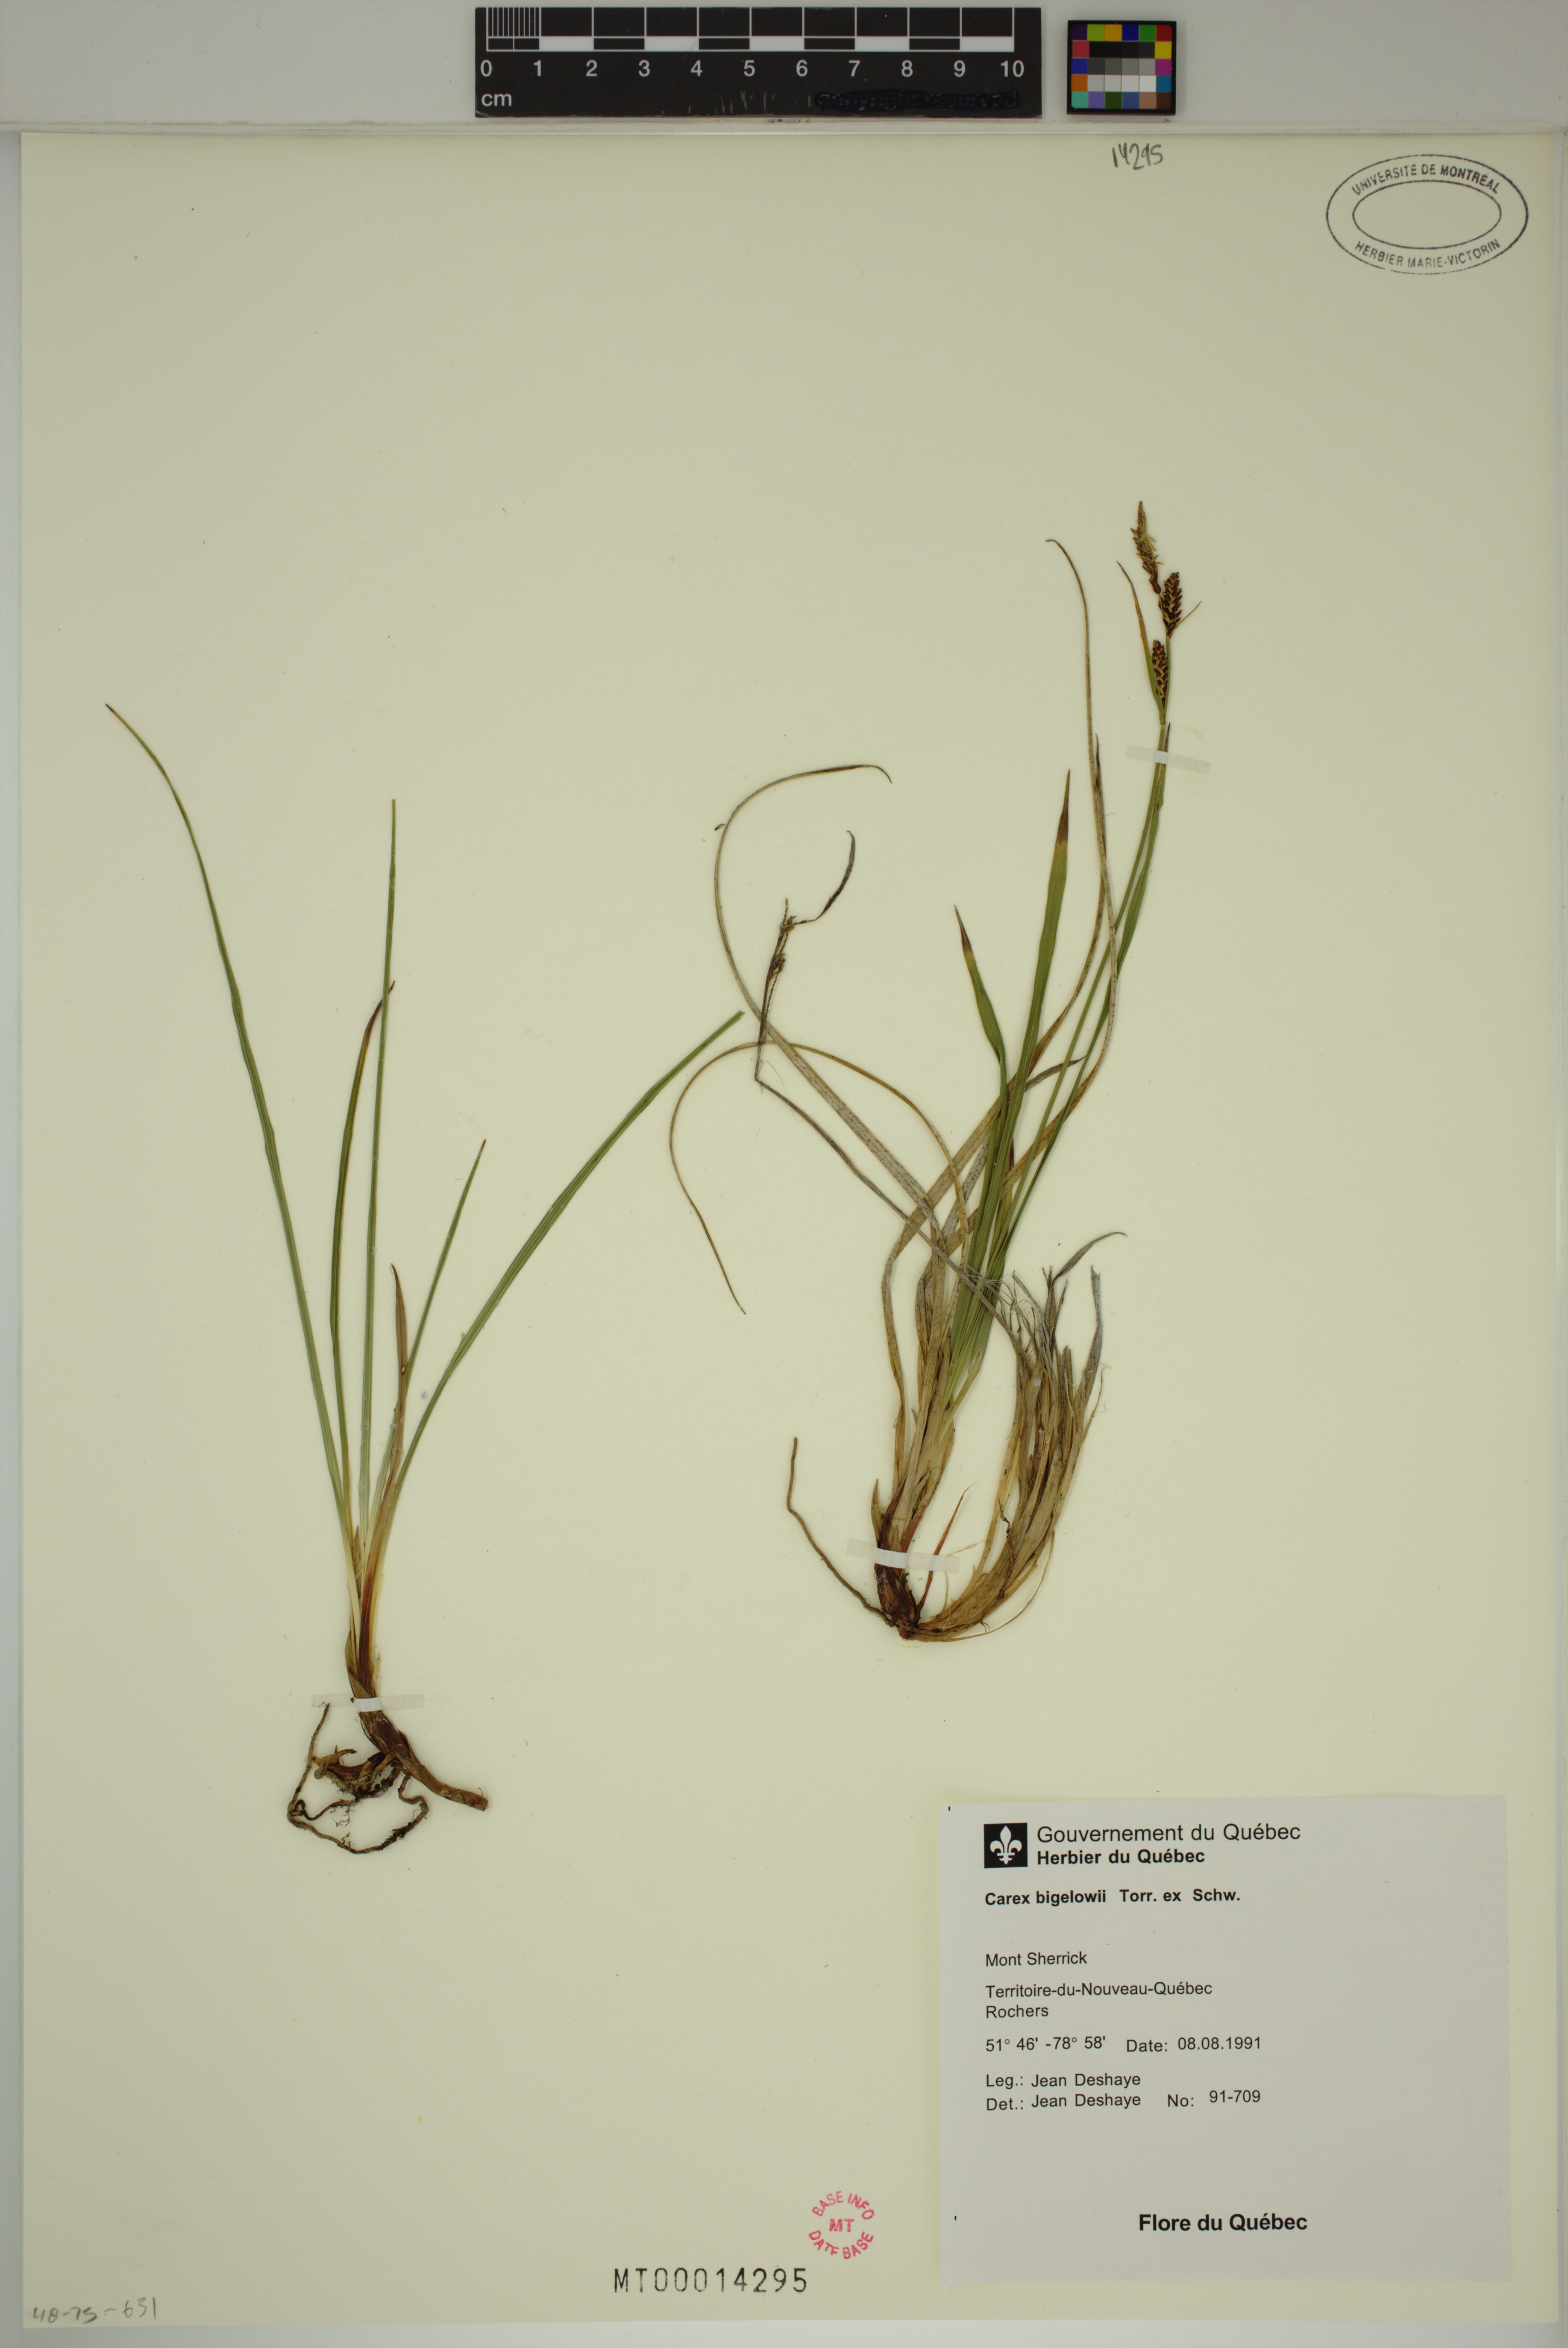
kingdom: Plantae
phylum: Tracheophyta
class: Liliopsida
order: Poales
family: Cyperaceae
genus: Carex
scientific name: Carex bigelowii
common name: Stiff sedge
